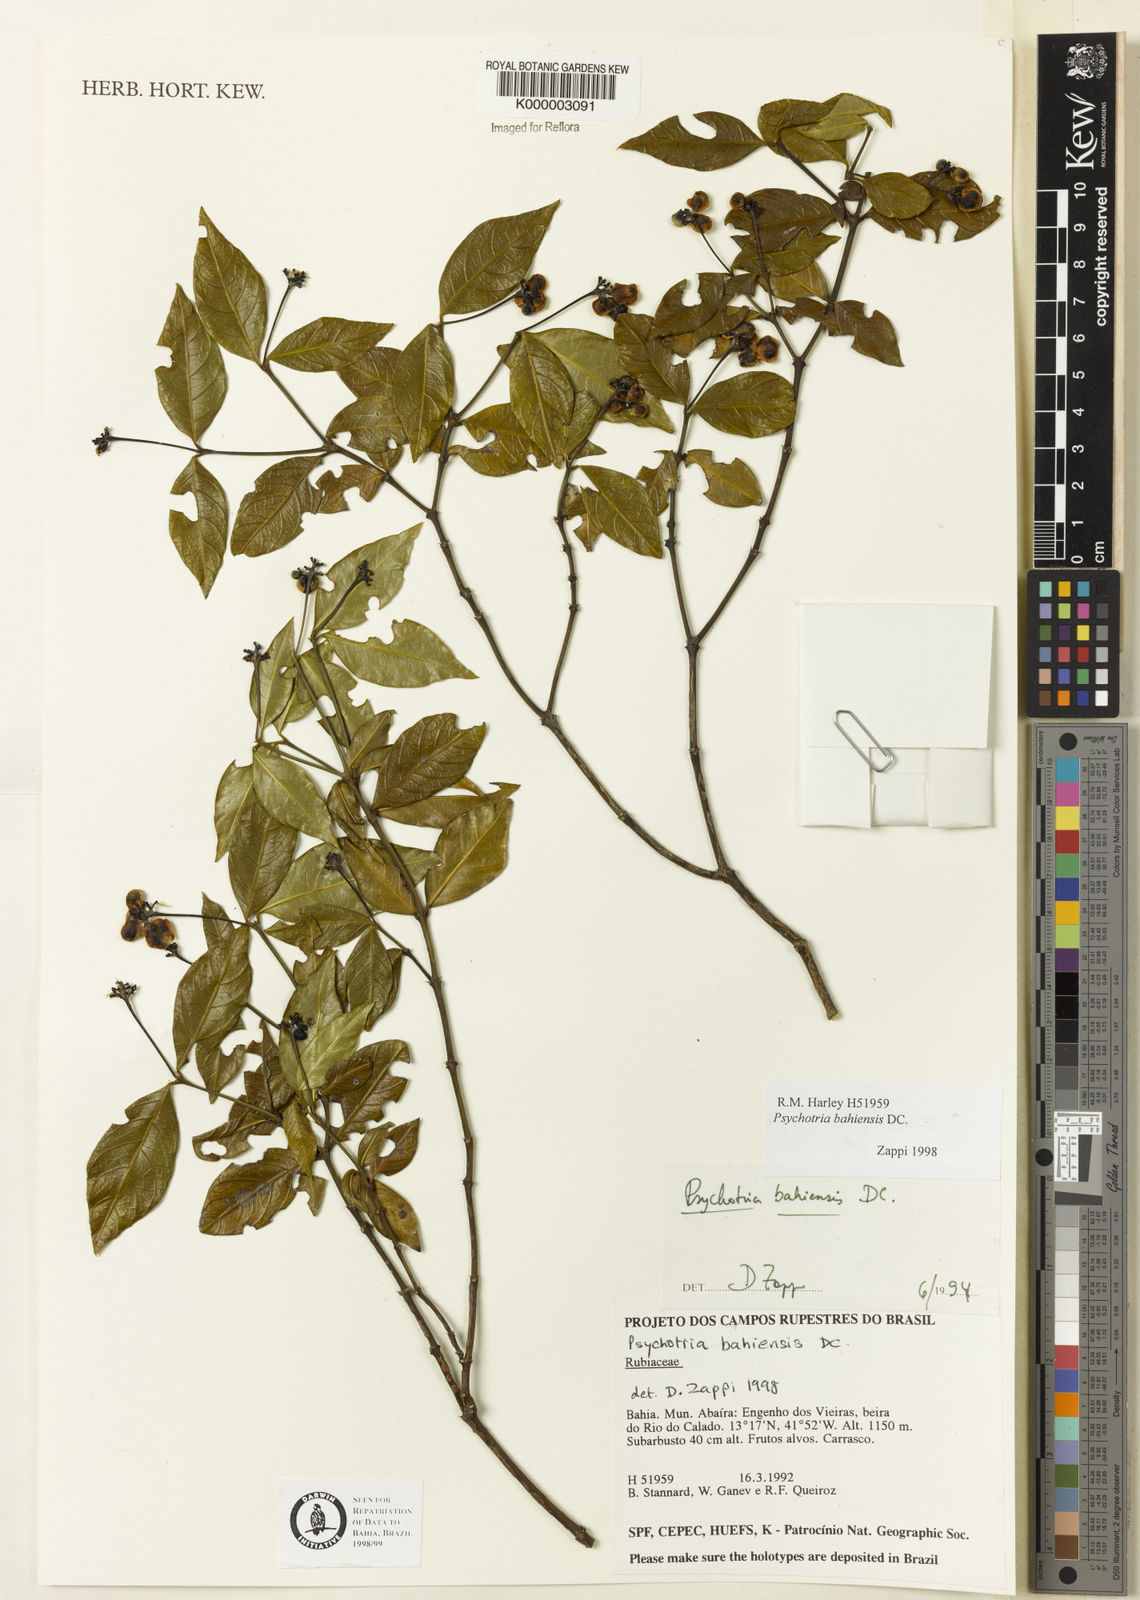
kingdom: Plantae
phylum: Tracheophyta
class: Magnoliopsida
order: Gentianales
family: Rubiaceae
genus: Psychotria
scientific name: Psychotria bahiensis
